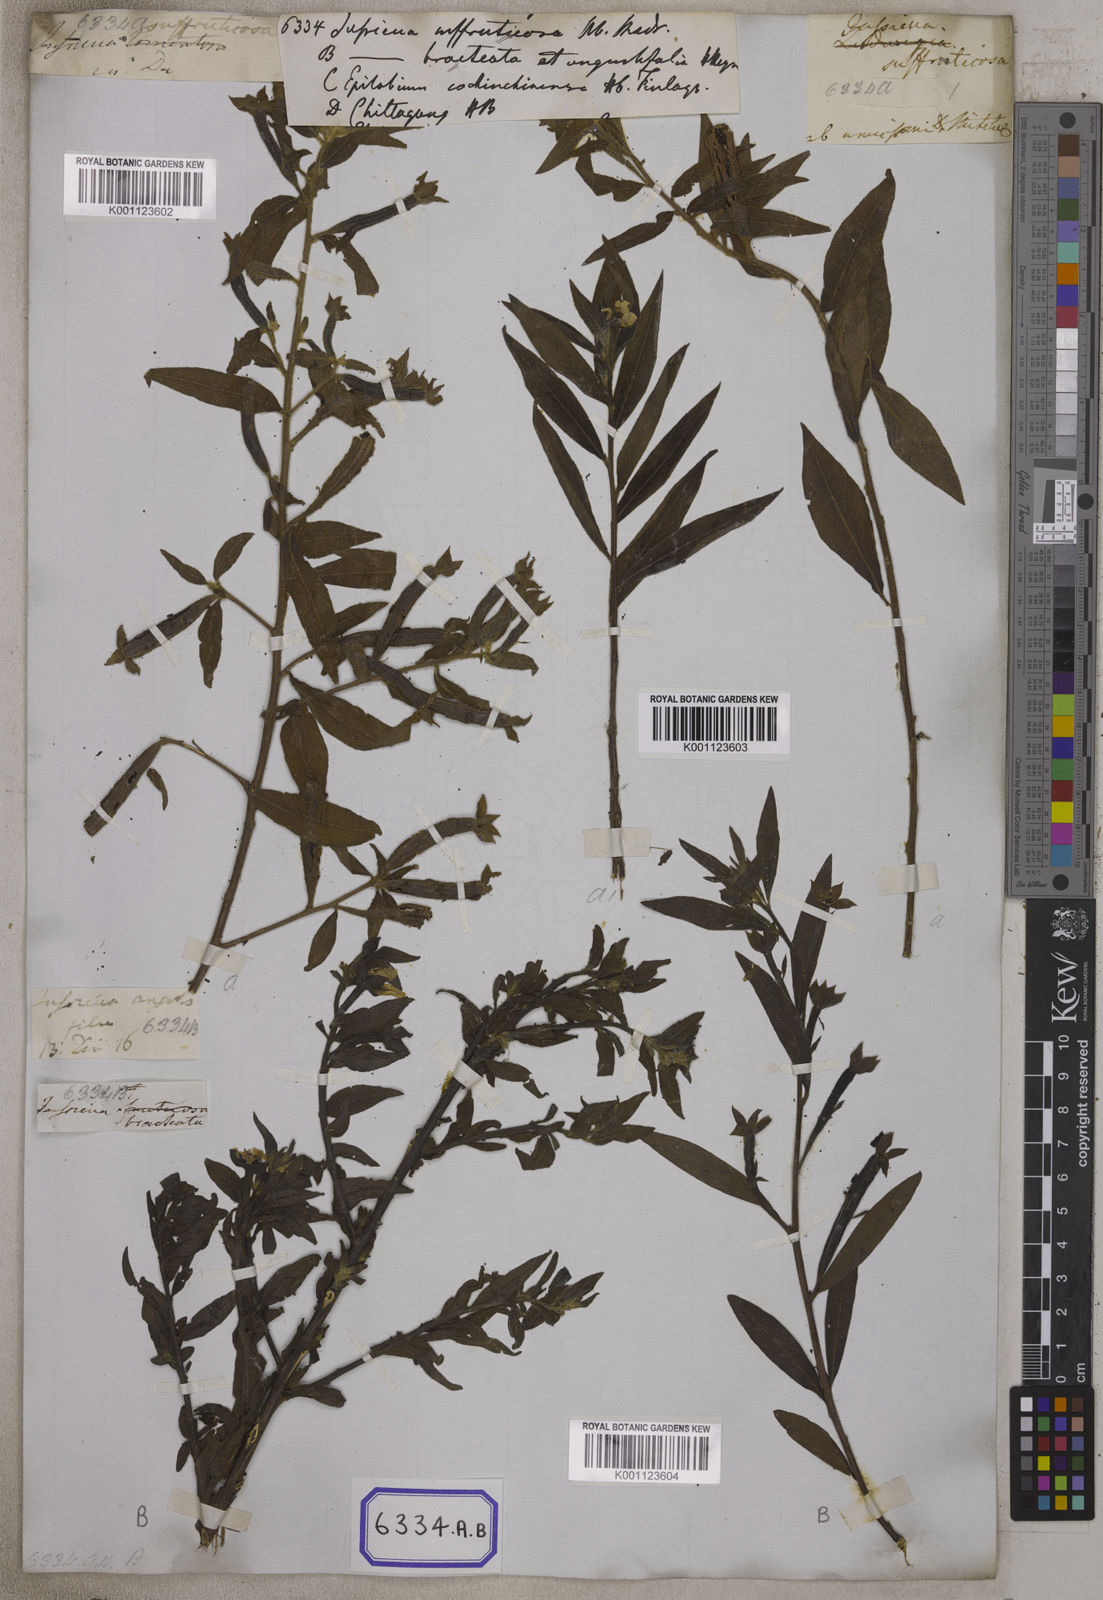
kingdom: Plantae
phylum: Tracheophyta
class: Magnoliopsida
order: Myrtales
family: Onagraceae
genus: Ludwigia
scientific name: Ludwigia octovalvis
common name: Water-primrose
